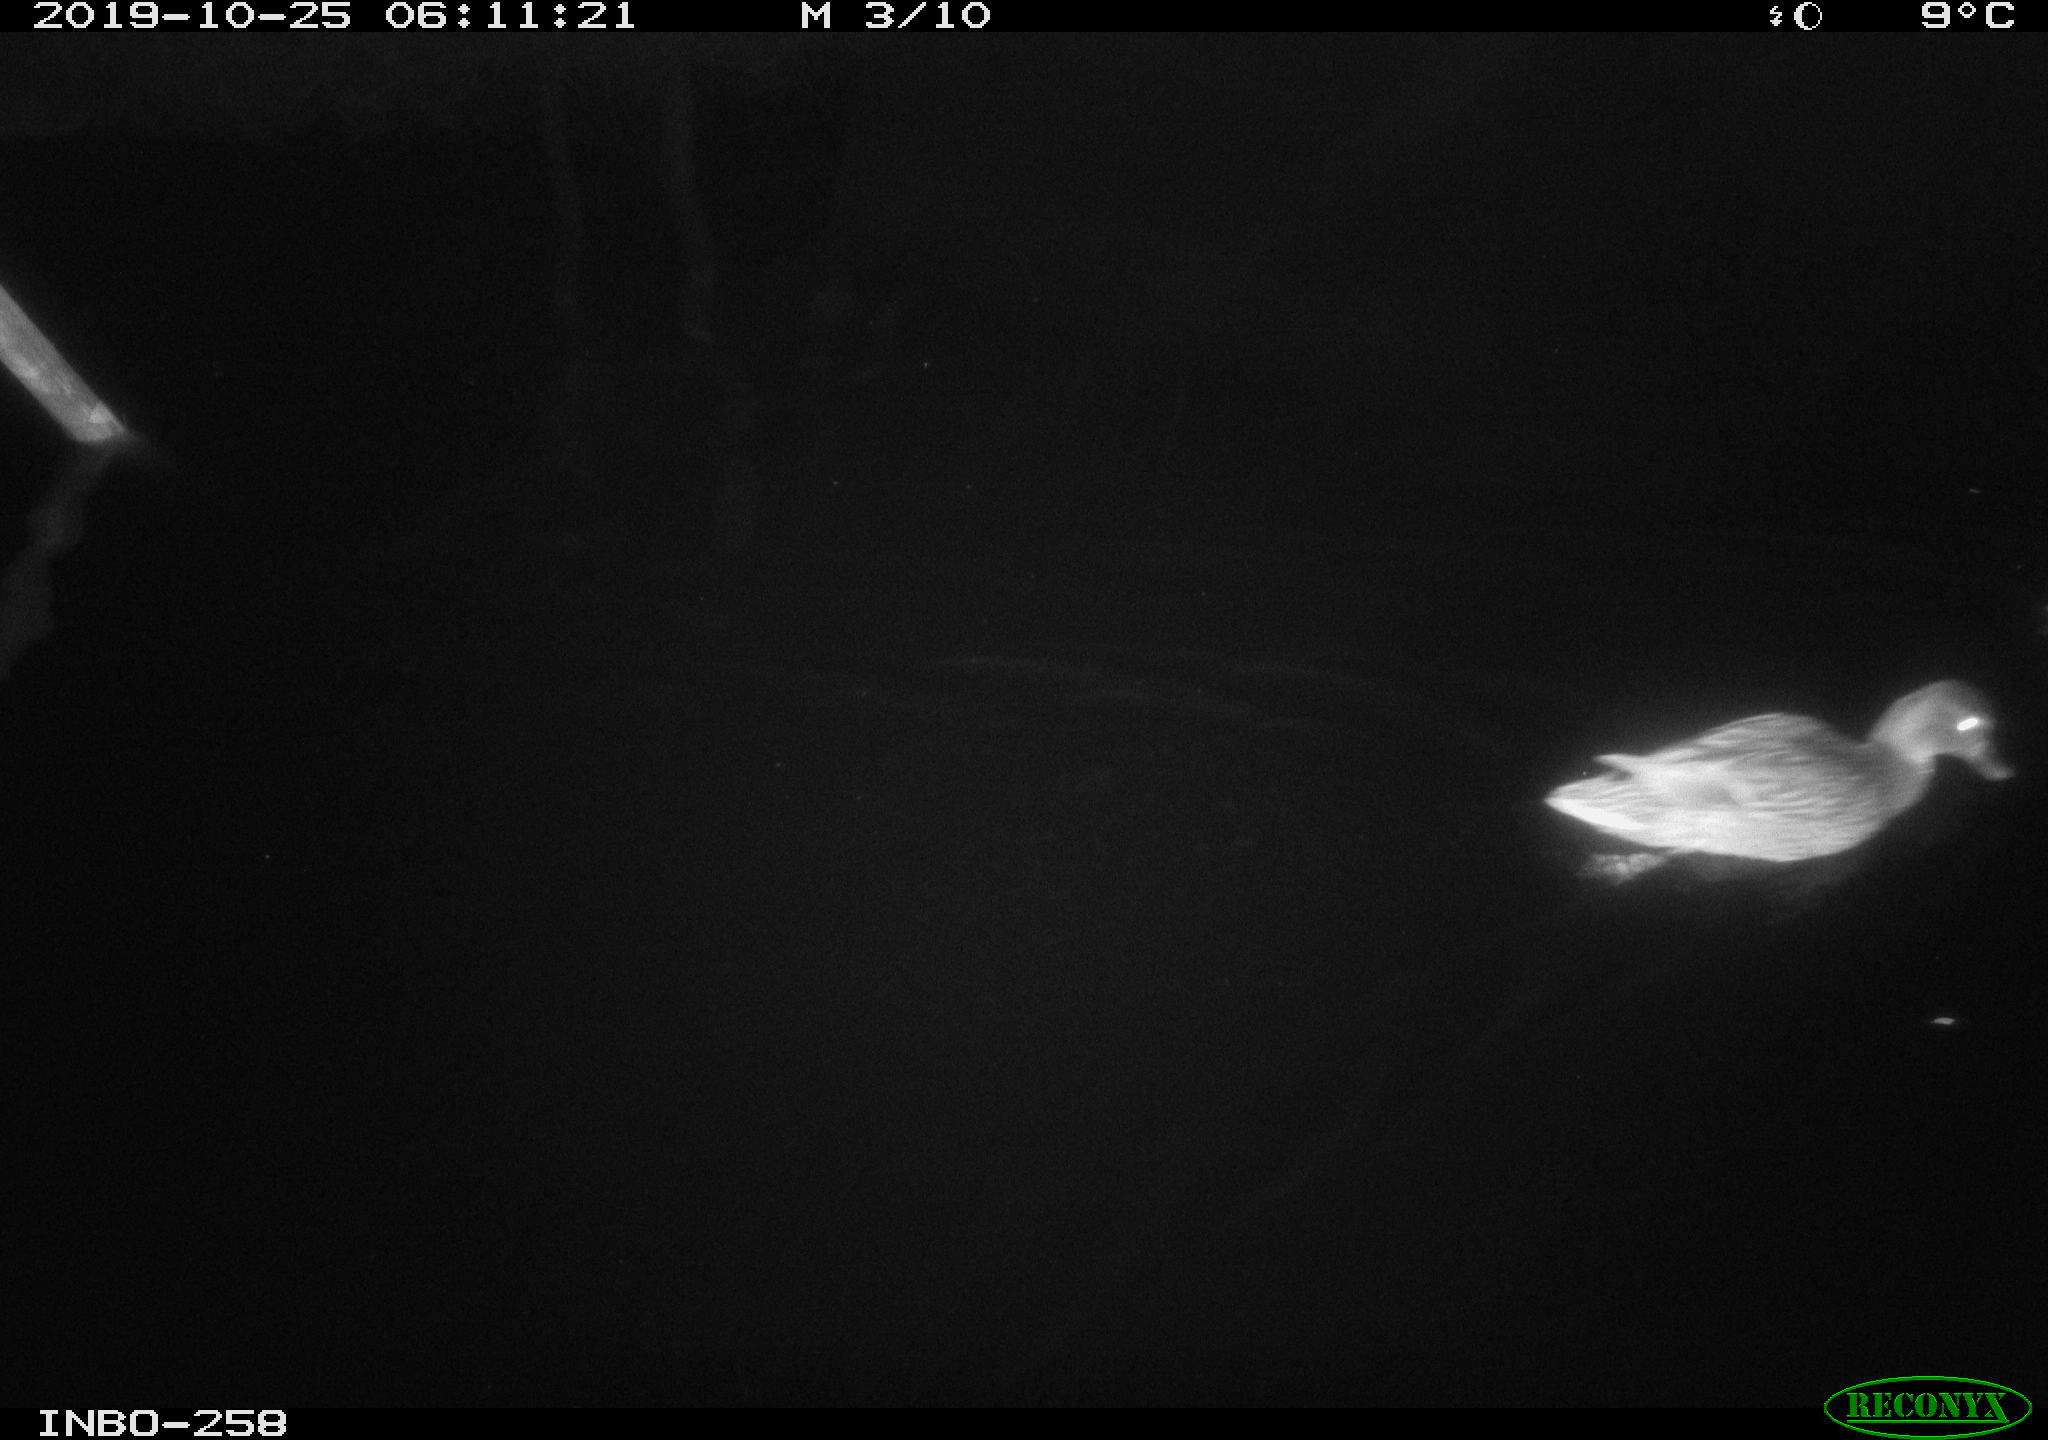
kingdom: Animalia
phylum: Chordata
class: Aves
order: Anseriformes
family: Anatidae
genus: Anas
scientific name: Anas platyrhynchos
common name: Mallard
